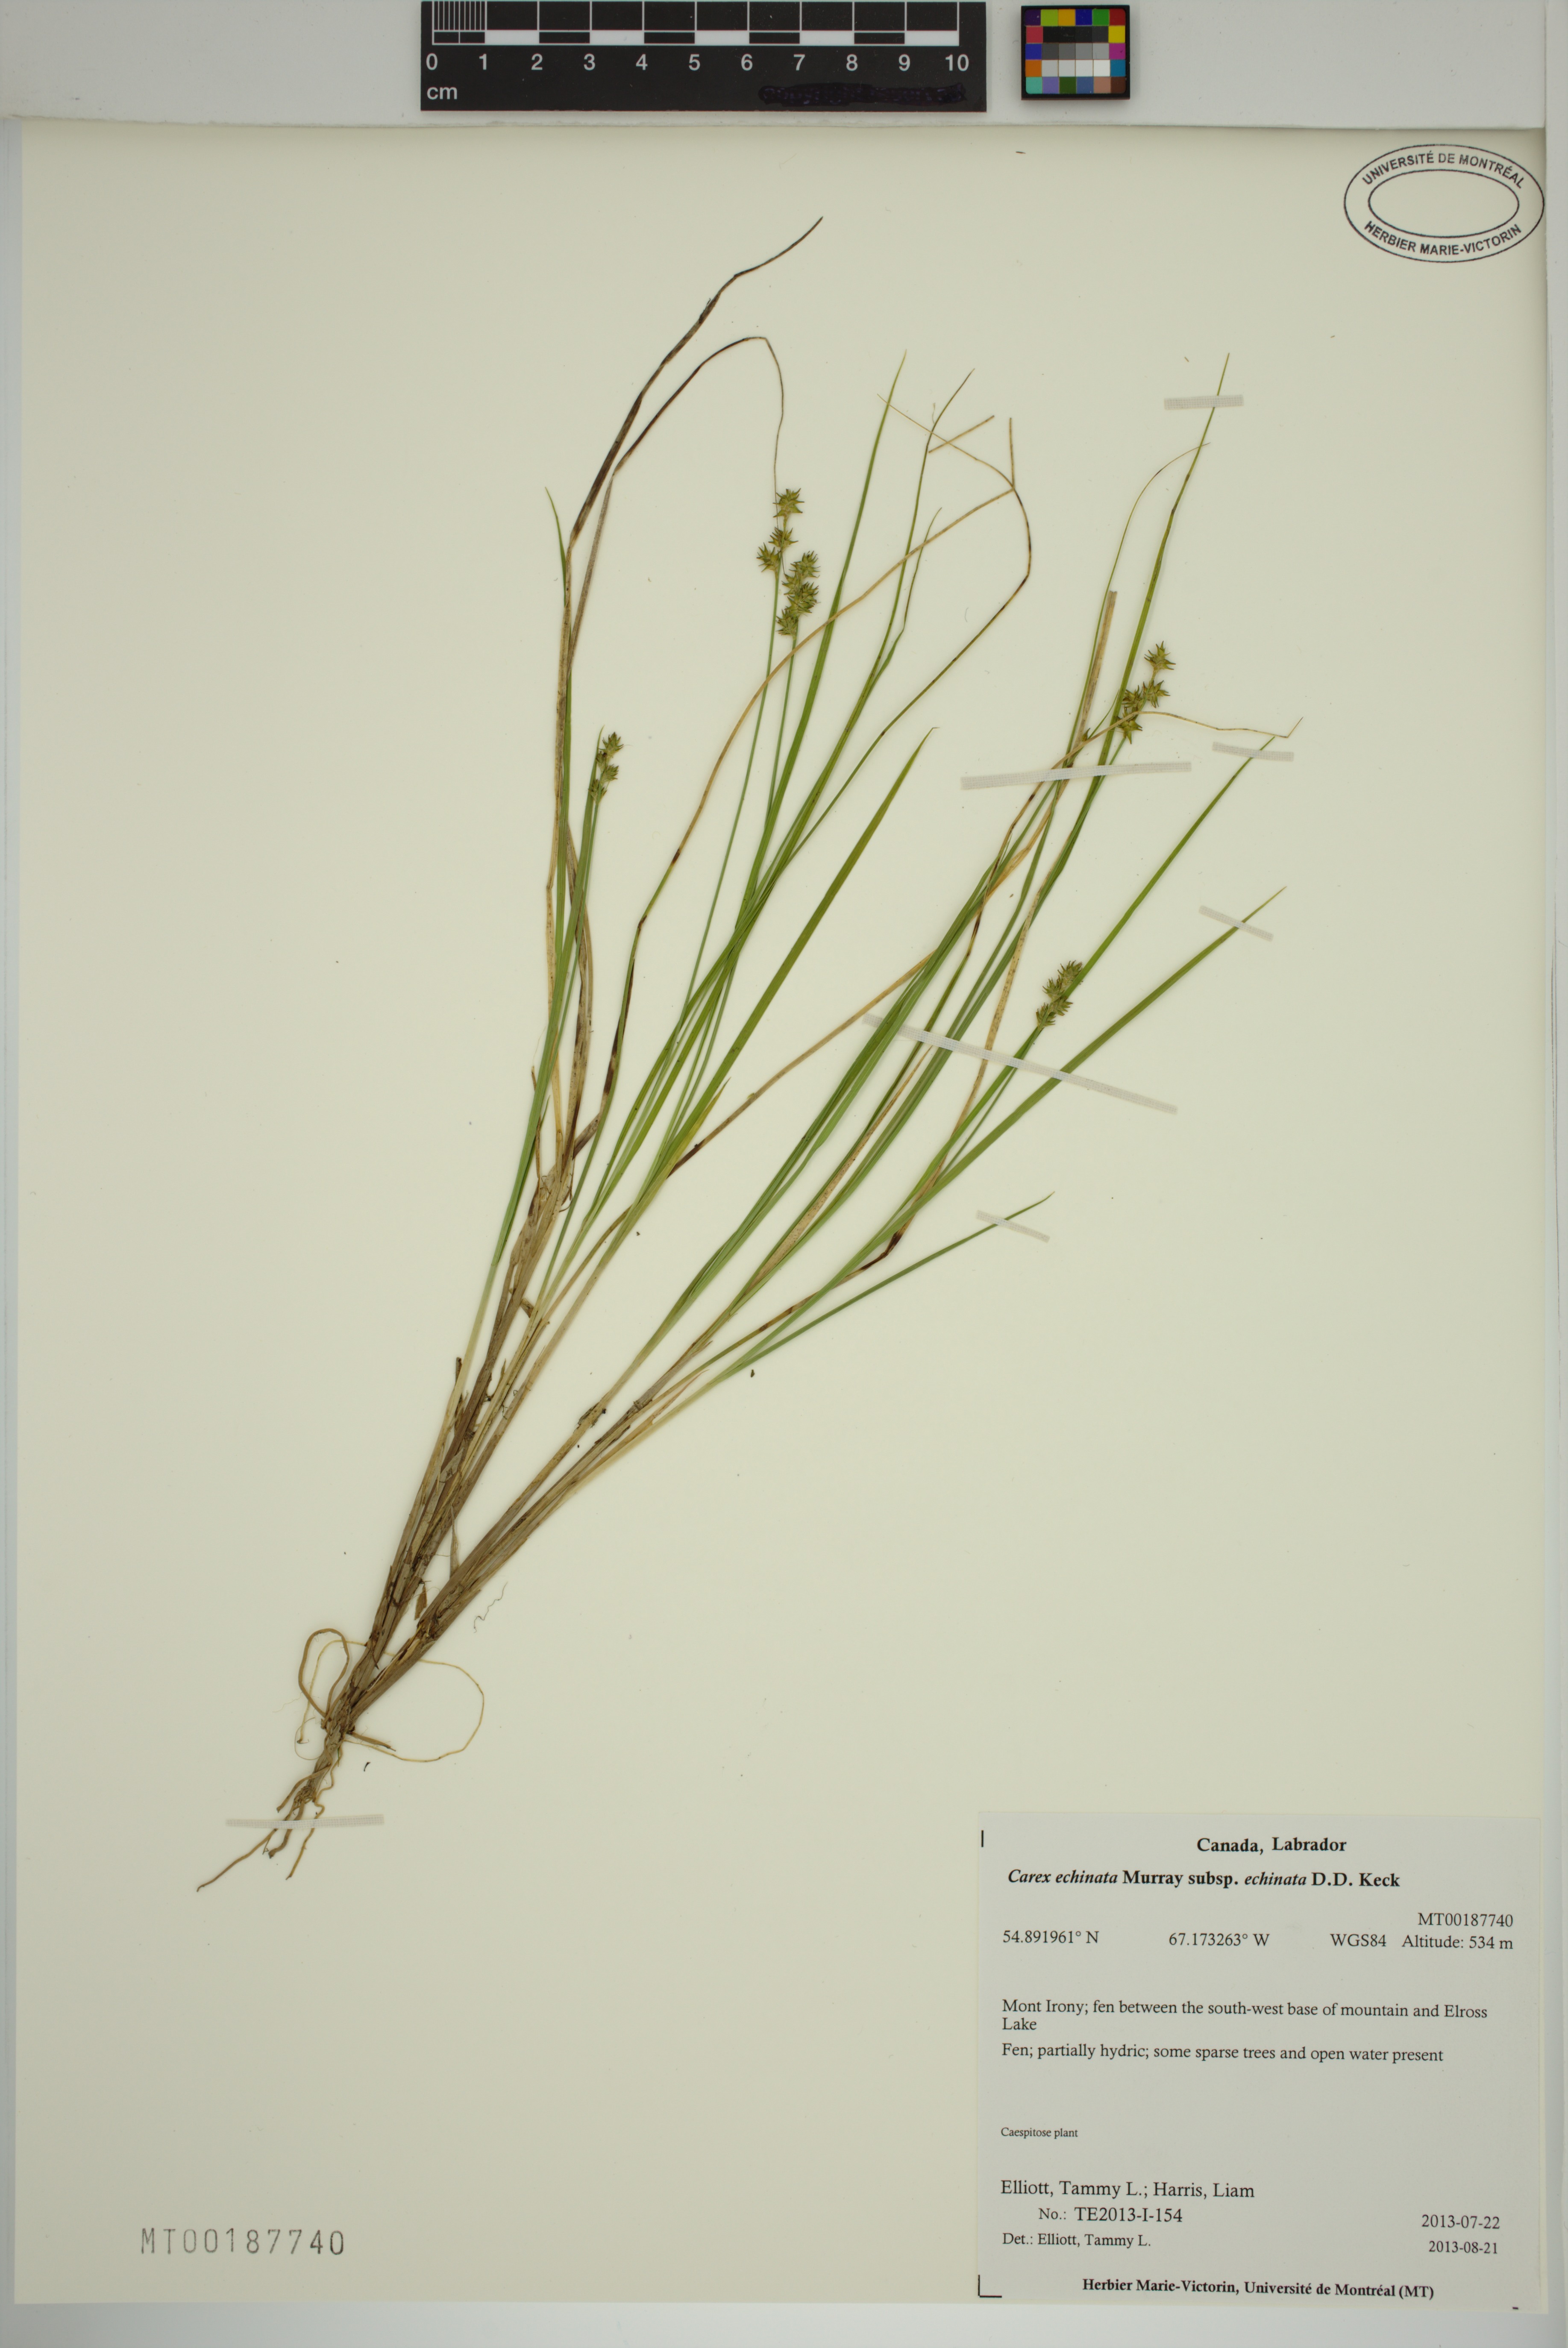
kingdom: Plantae
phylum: Tracheophyta
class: Liliopsida
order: Poales
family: Cyperaceae
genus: Carex
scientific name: Carex echinata
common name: Star sedge
